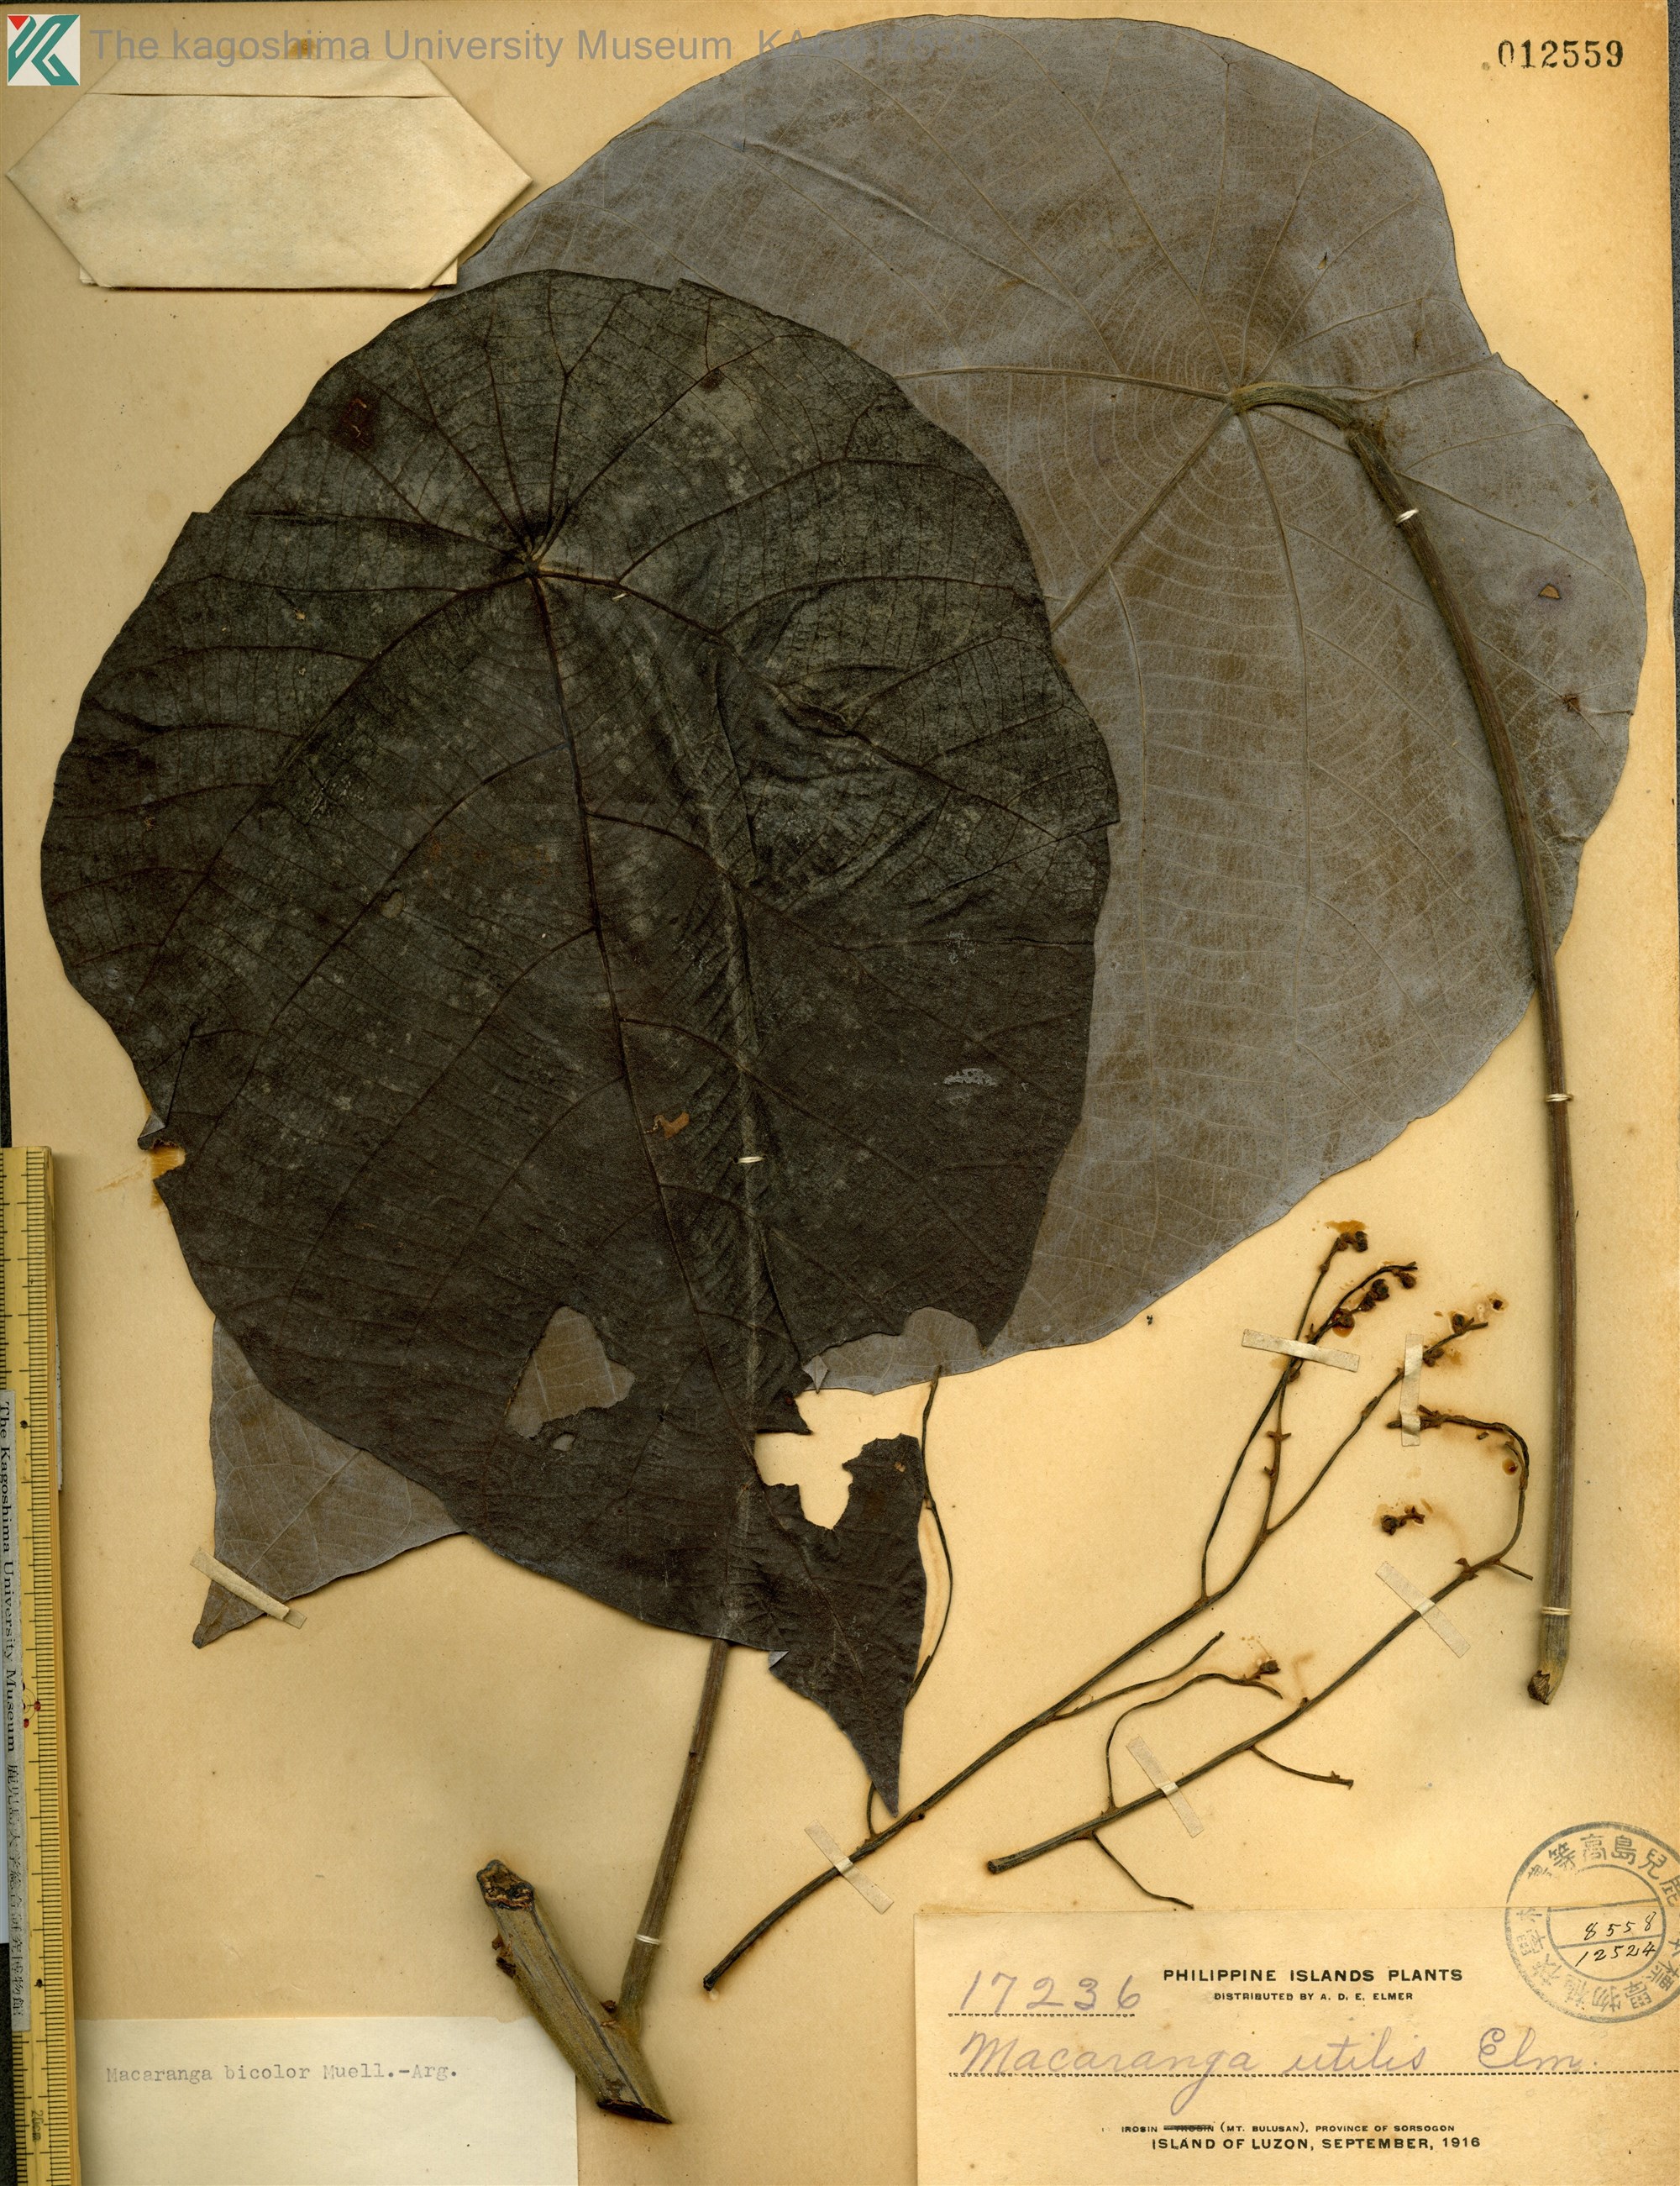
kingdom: Plantae
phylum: Tracheophyta
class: Magnoliopsida
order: Malpighiales
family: Euphorbiaceae
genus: Macaranga
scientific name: Macaranga bicolor
